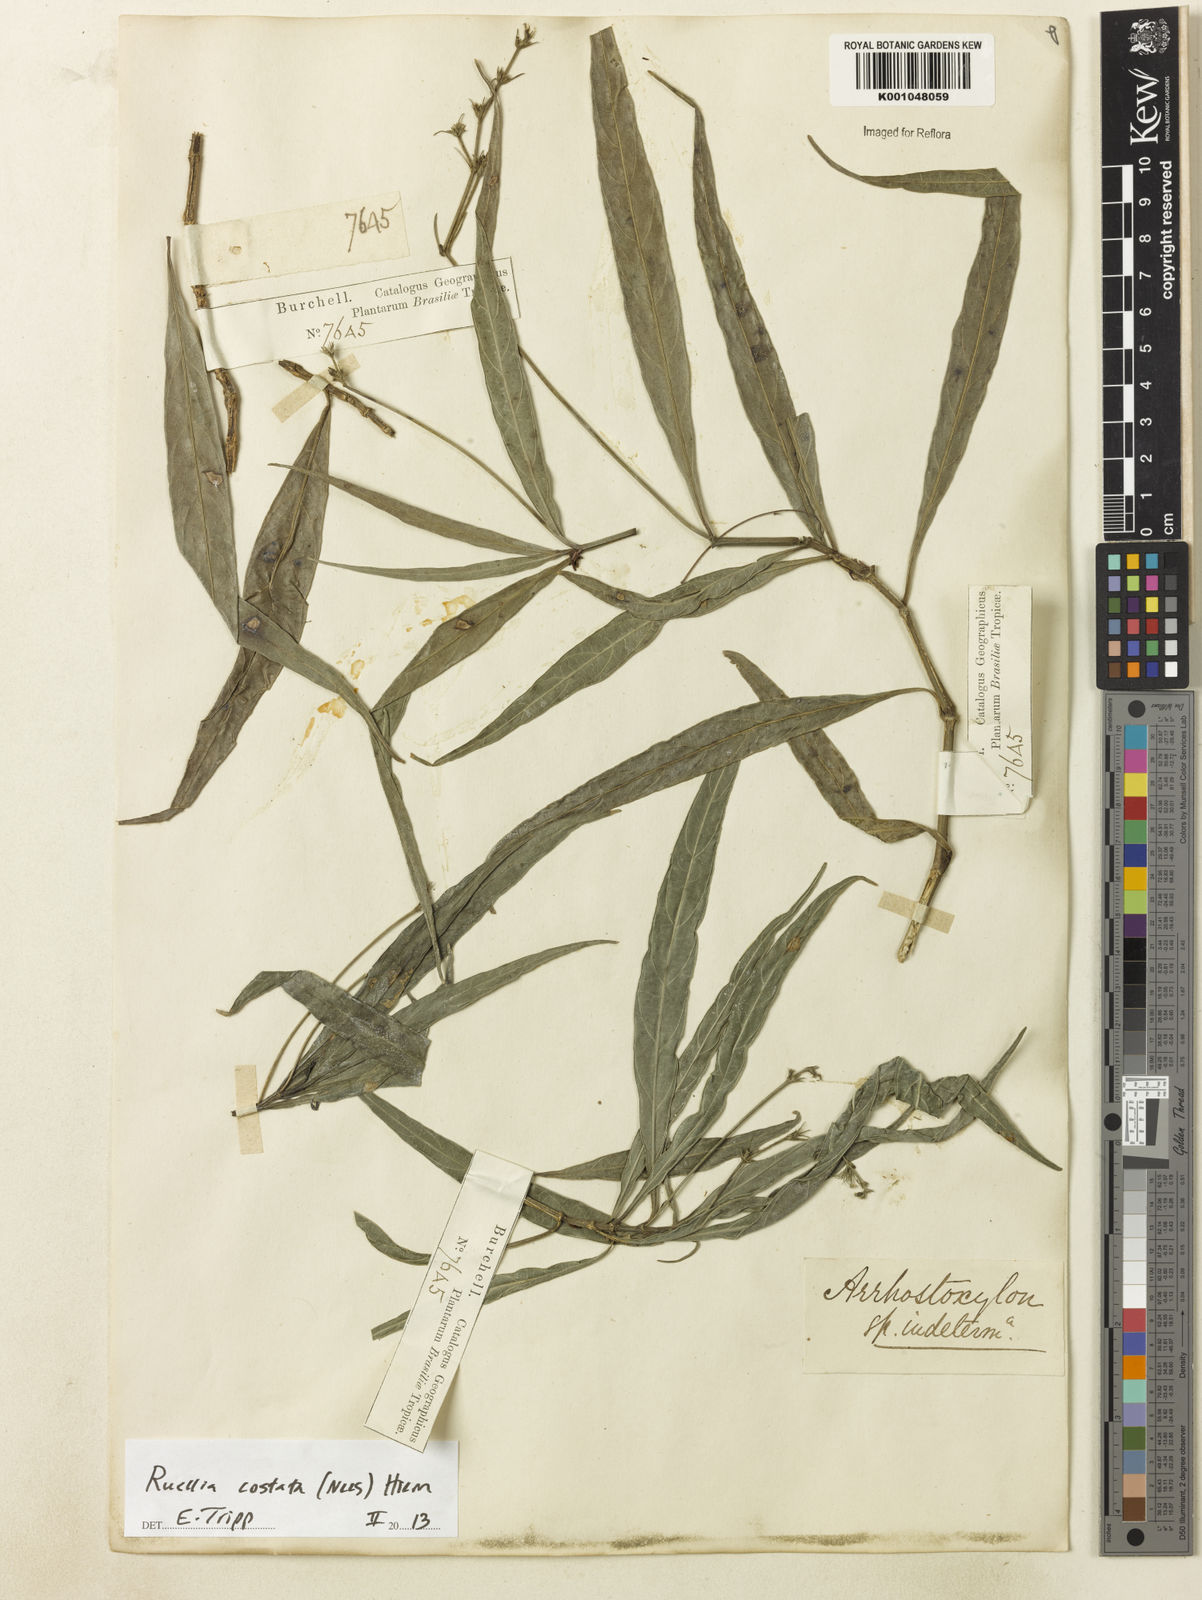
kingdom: Plantae
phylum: Tracheophyta
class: Magnoliopsida
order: Lamiales
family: Acanthaceae
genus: Ruellia
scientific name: Ruellia costata
